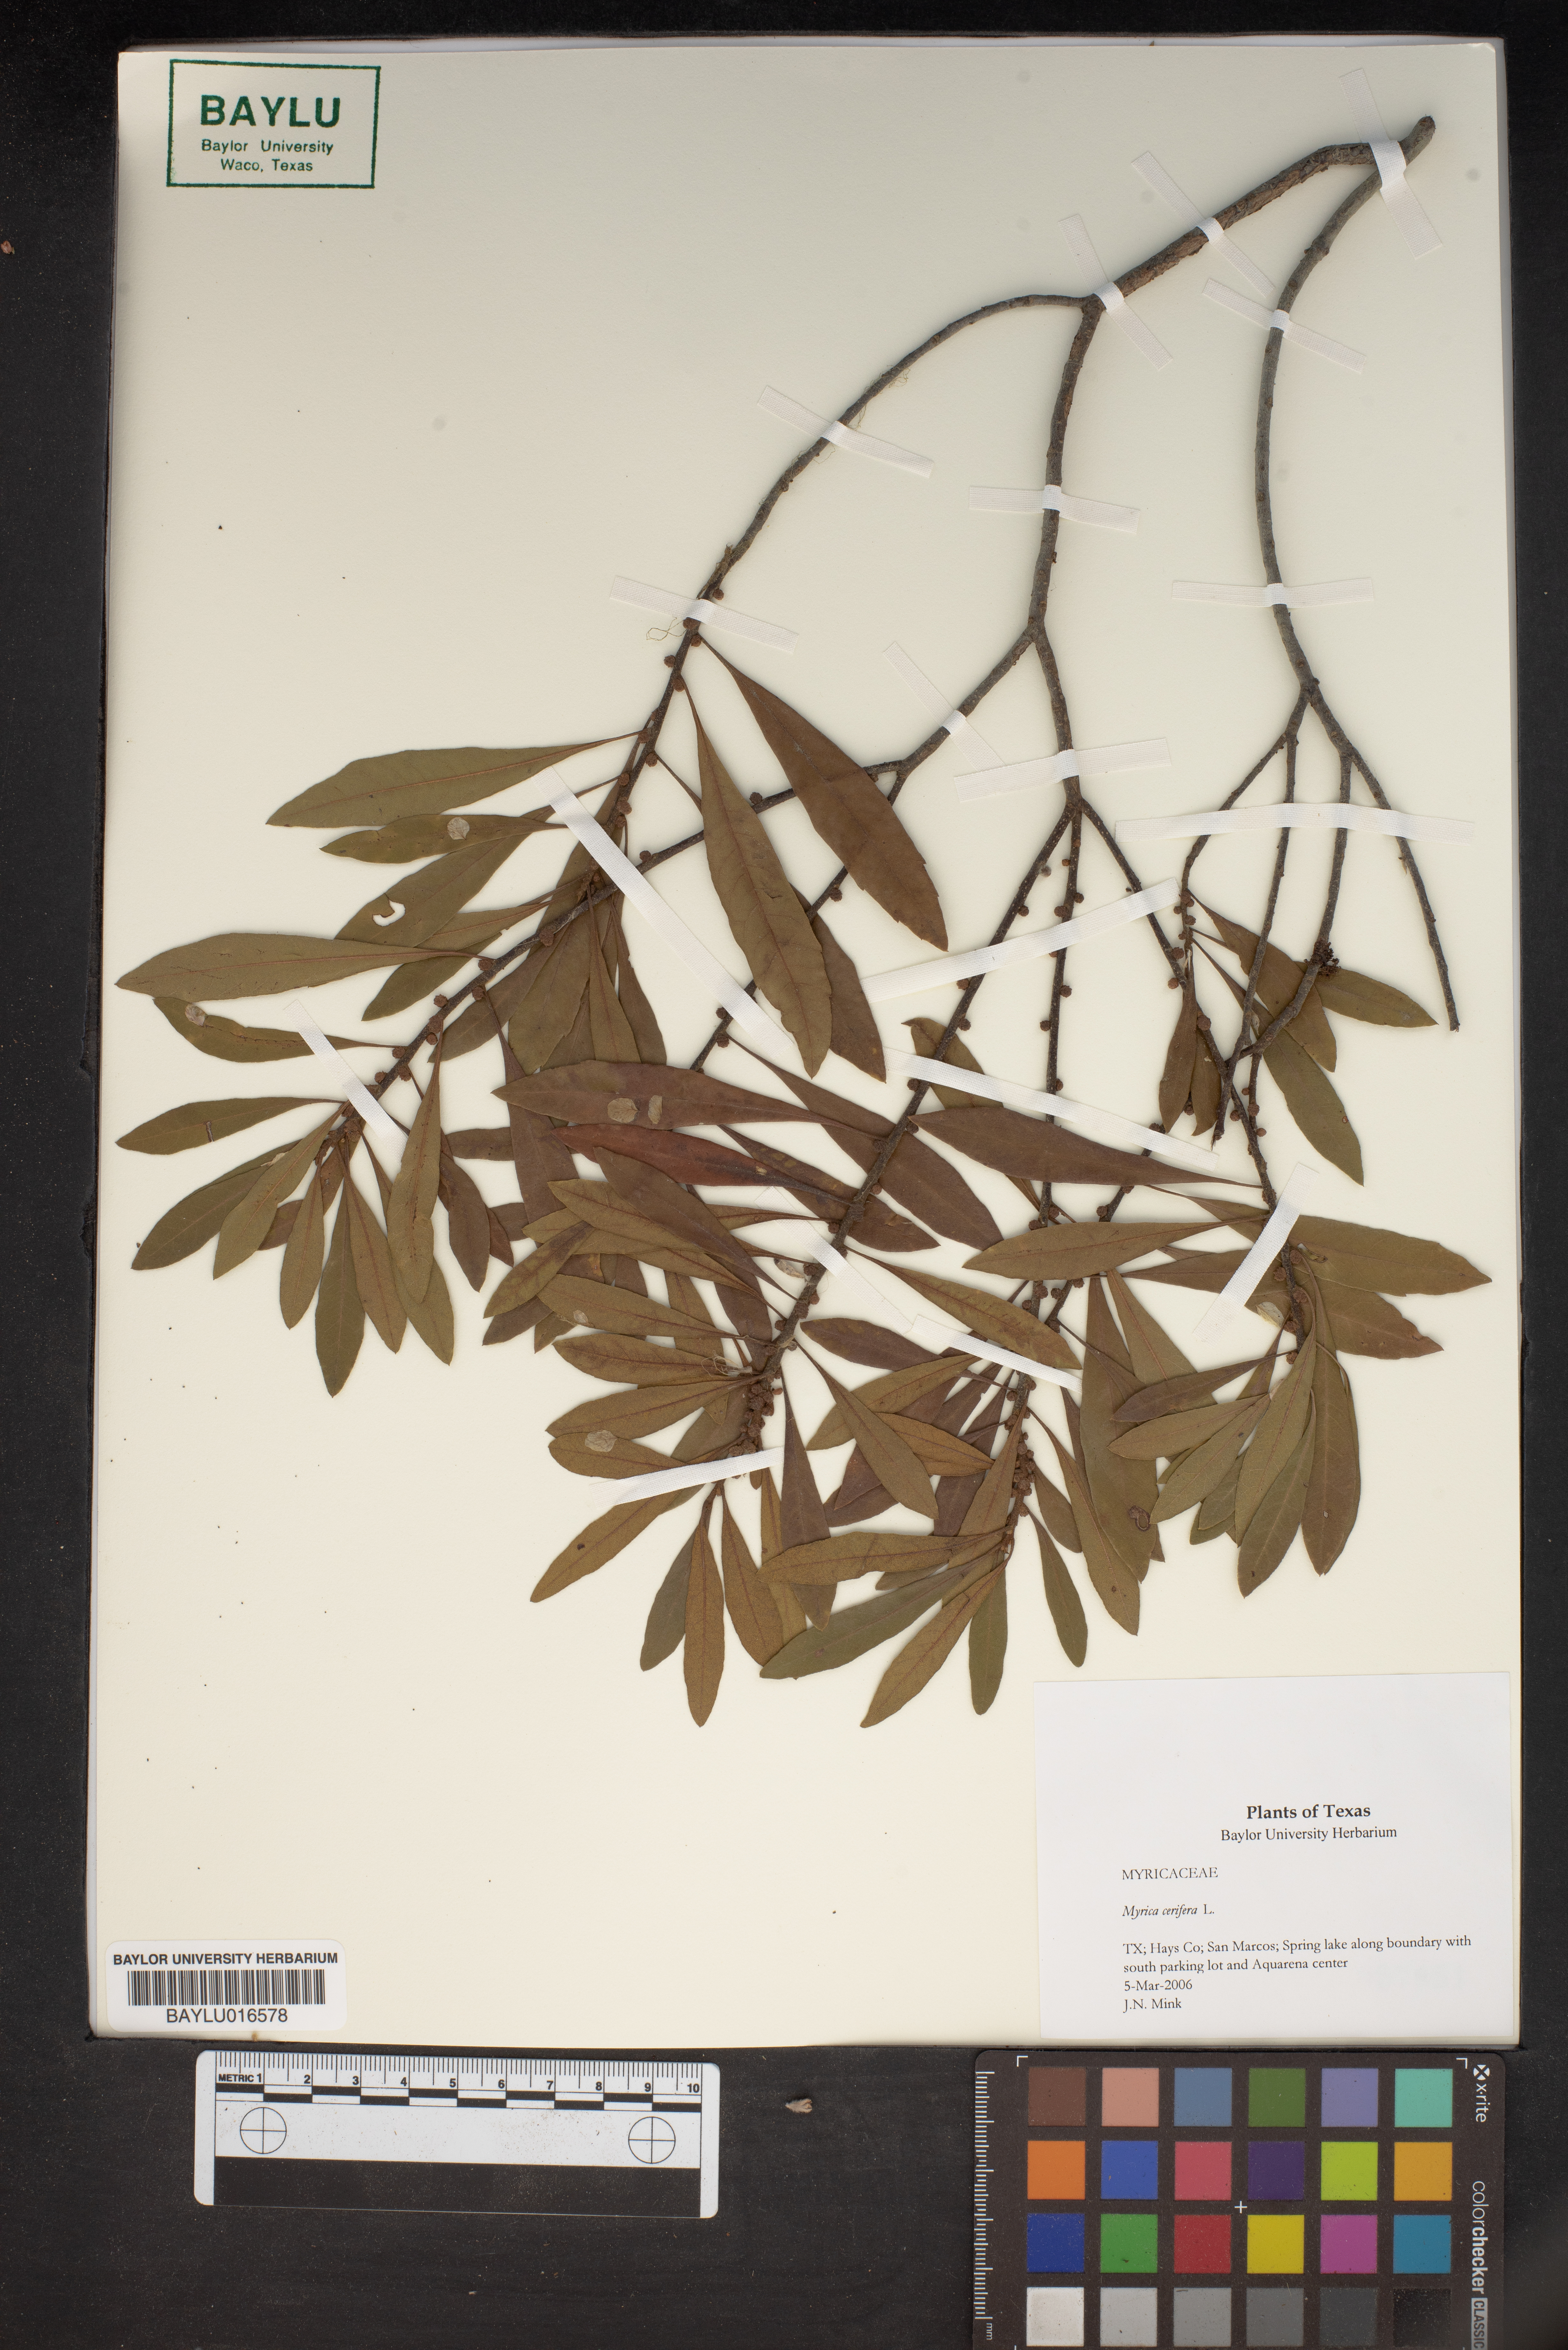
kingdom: Plantae
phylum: Tracheophyta
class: Magnoliopsida
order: Fagales
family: Myricaceae
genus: Morella
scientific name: Morella cerifera
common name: Wax myrtle
